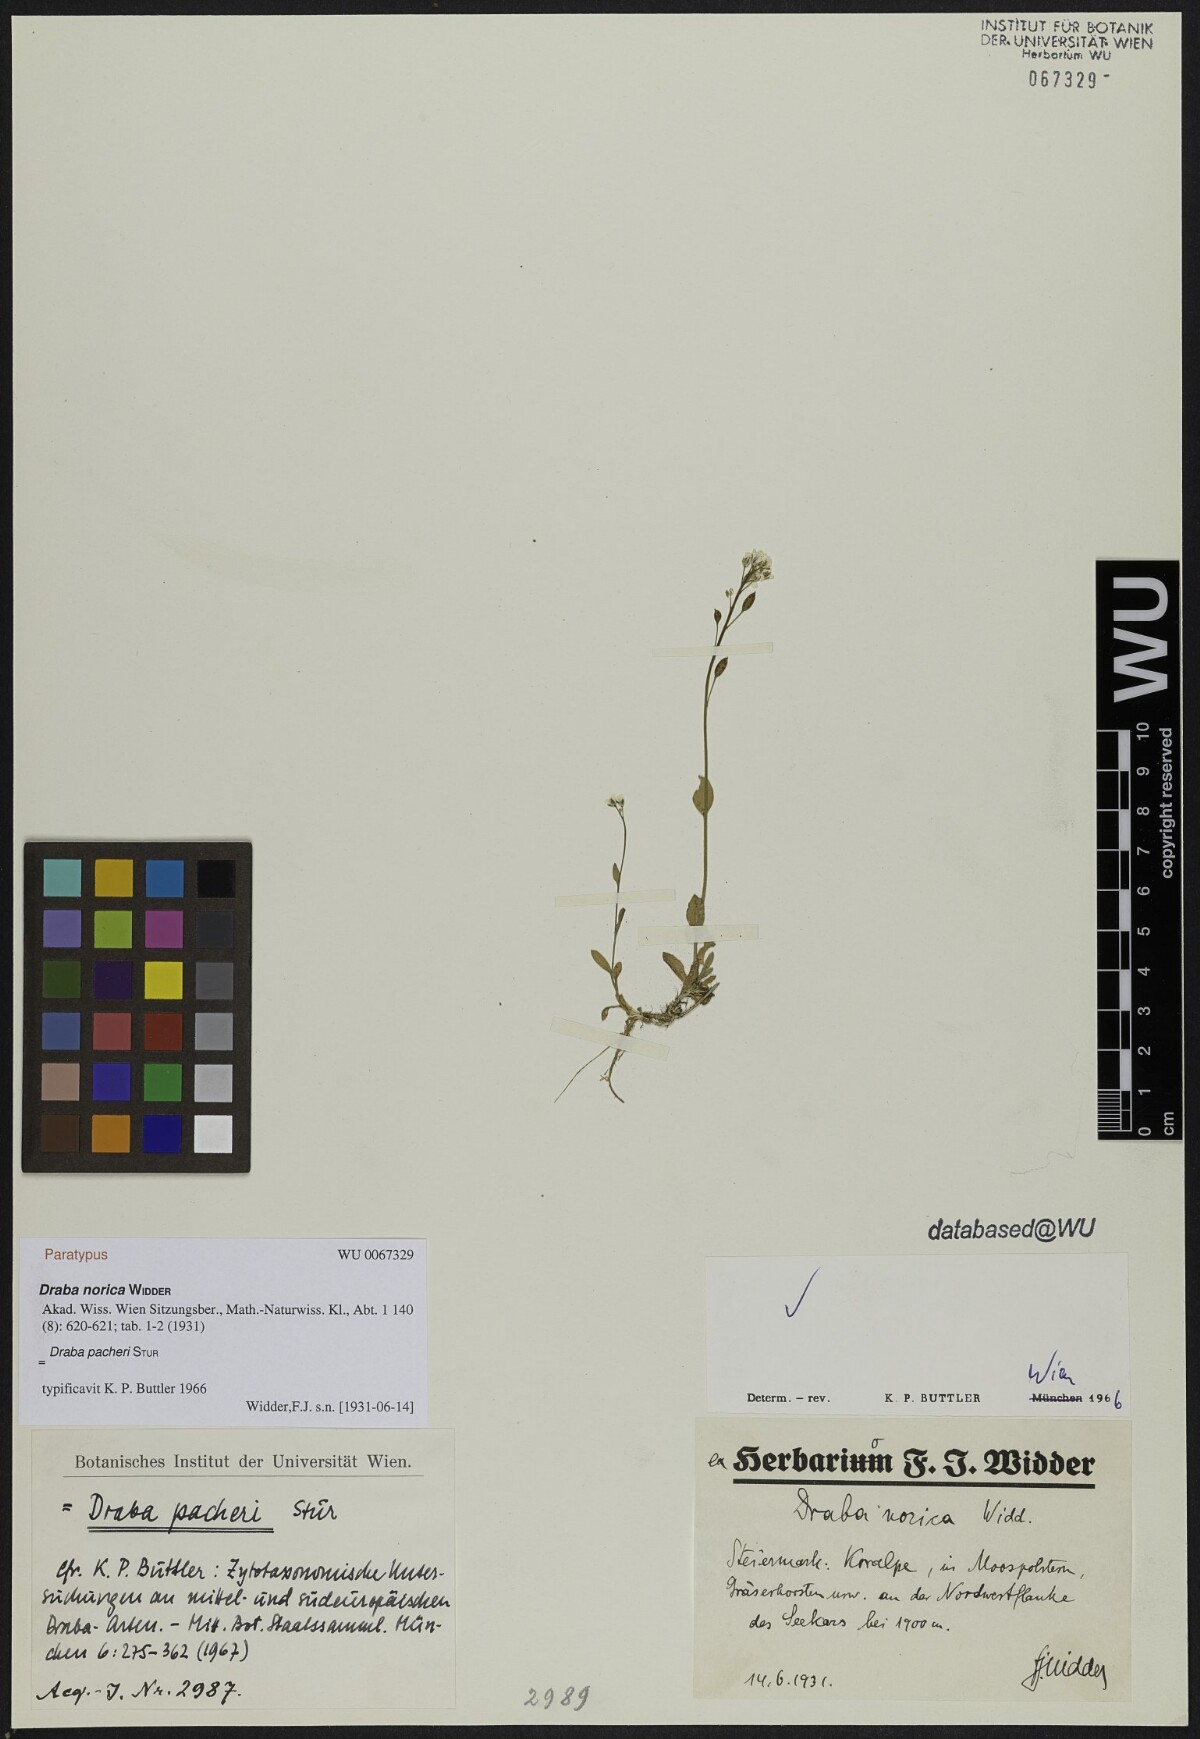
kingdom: Plantae
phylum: Tracheophyta
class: Magnoliopsida
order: Brassicales
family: Brassicaceae
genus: Draba
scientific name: Draba pacheri
